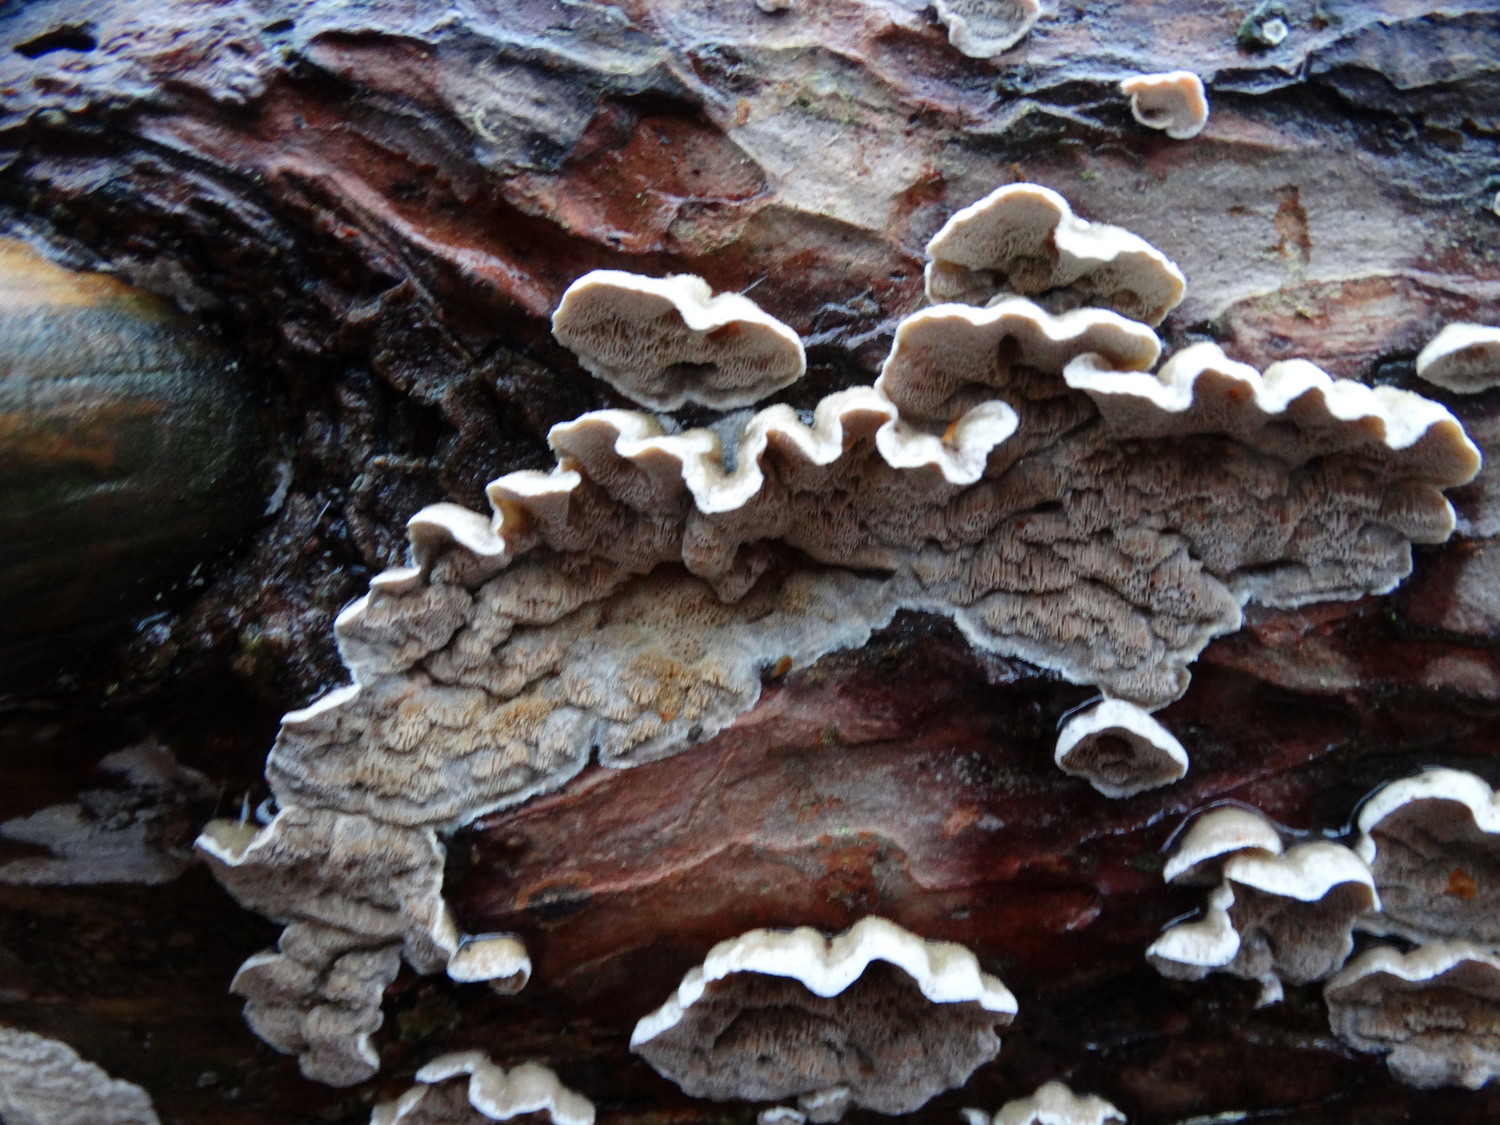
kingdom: Fungi
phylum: Basidiomycota
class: Agaricomycetes
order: Polyporales
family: Incrustoporiaceae
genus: Skeletocutis
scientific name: Skeletocutis carneogrisea
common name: rødgrå krystalporesvamp
